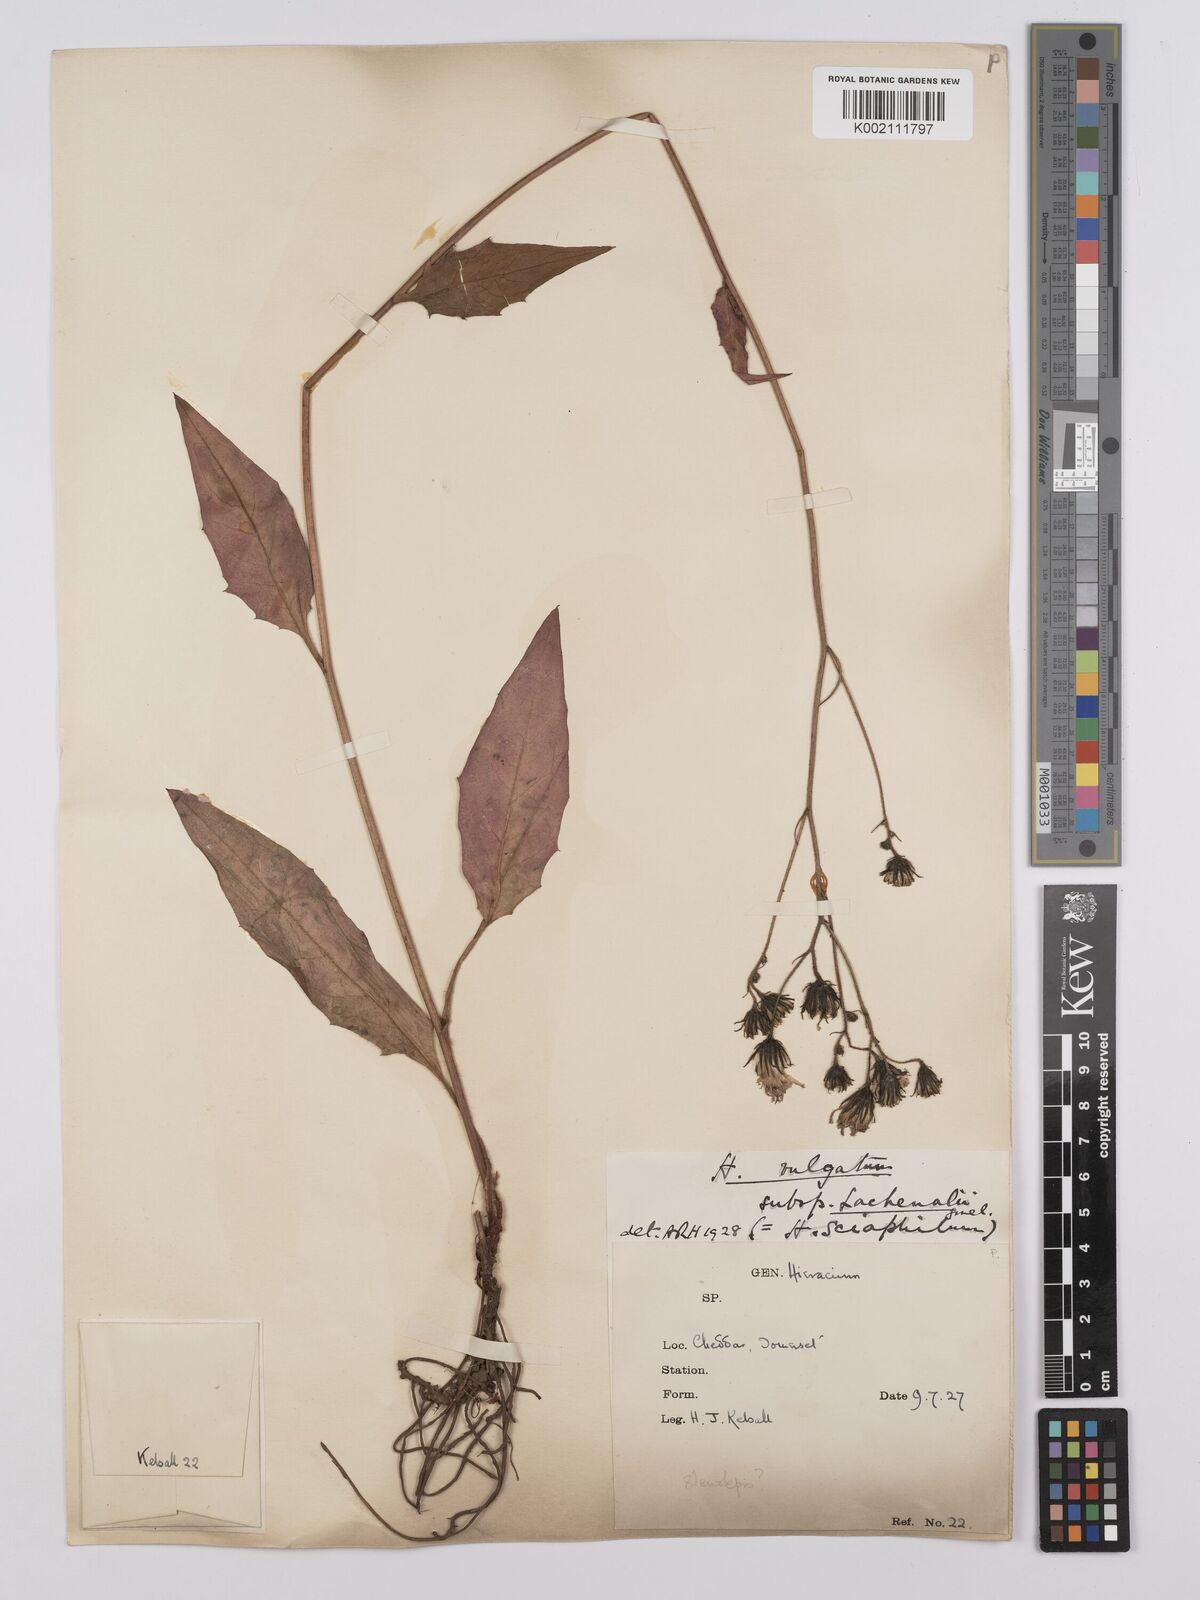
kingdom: Plantae
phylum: Tracheophyta
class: Magnoliopsida
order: Asterales
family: Asteraceae
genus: Hieracium
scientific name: Hieracium lachenalii
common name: Common hawkweed
